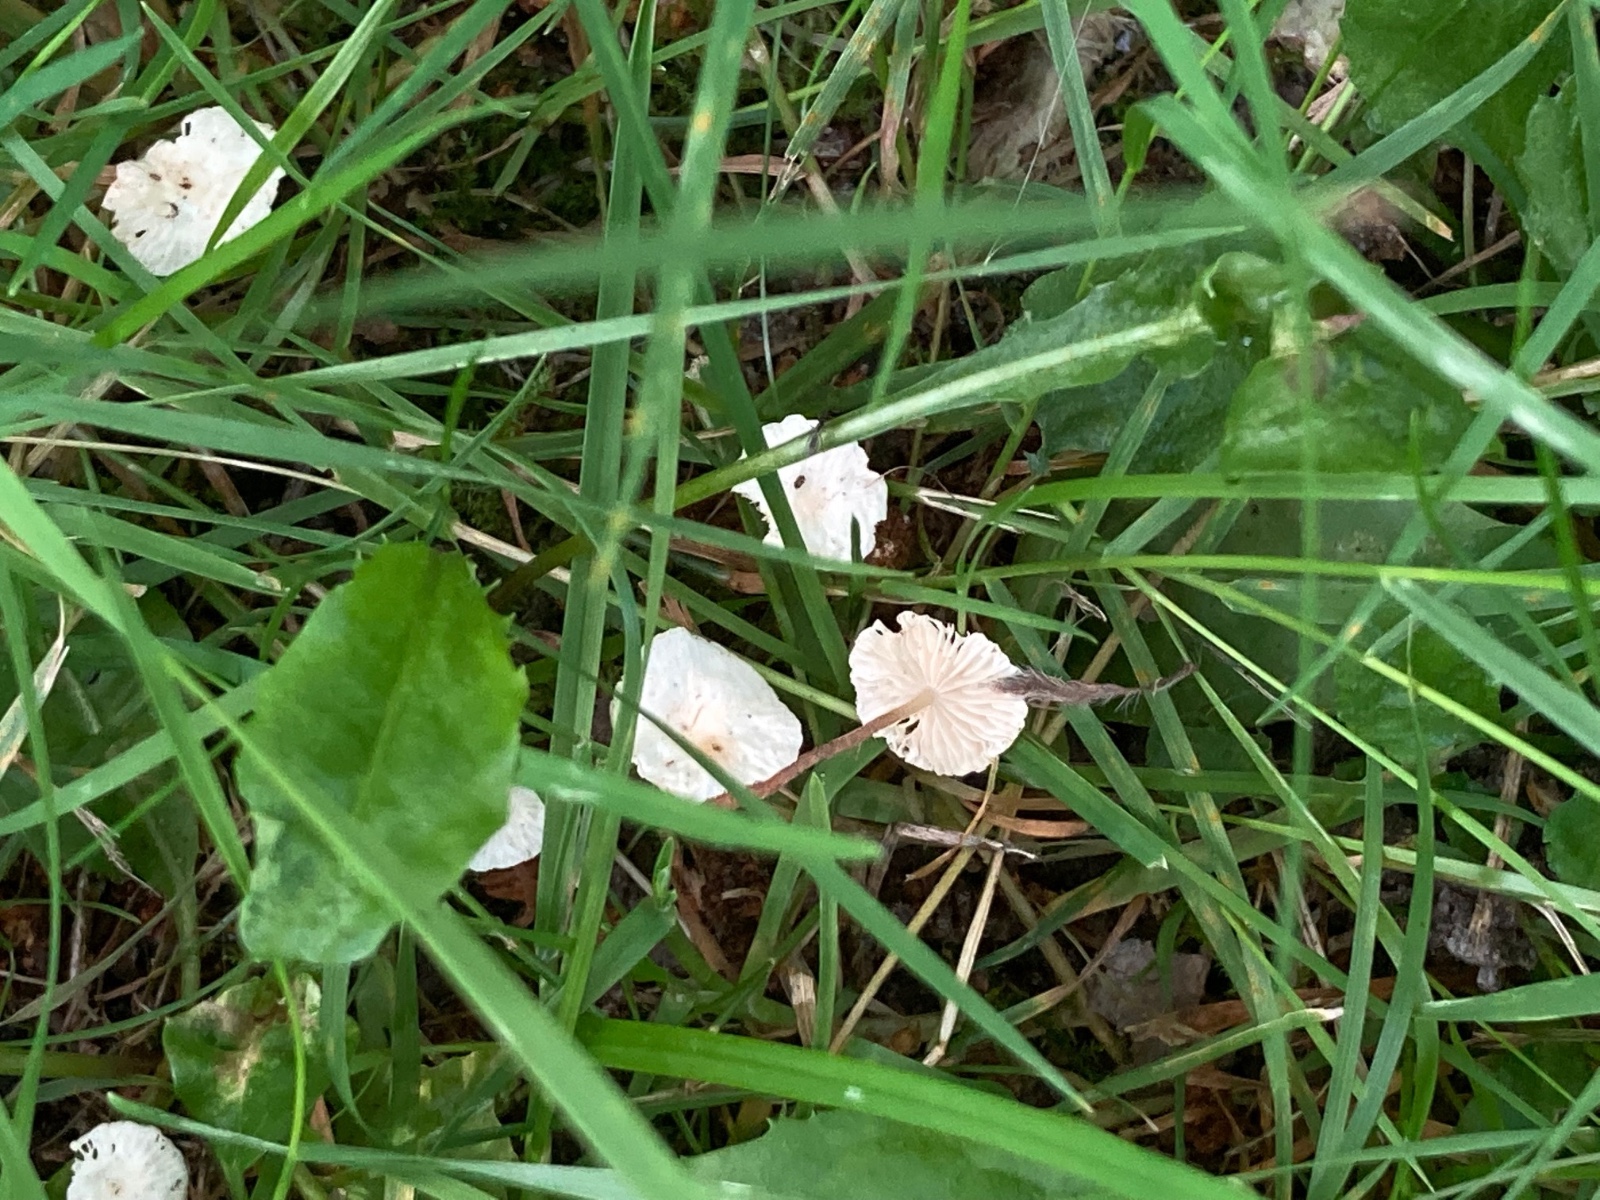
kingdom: Fungi
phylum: Basidiomycota
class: Agaricomycetes
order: Agaricales
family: Omphalotaceae
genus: Collybiopsis
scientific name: Collybiopsis vaillantii
